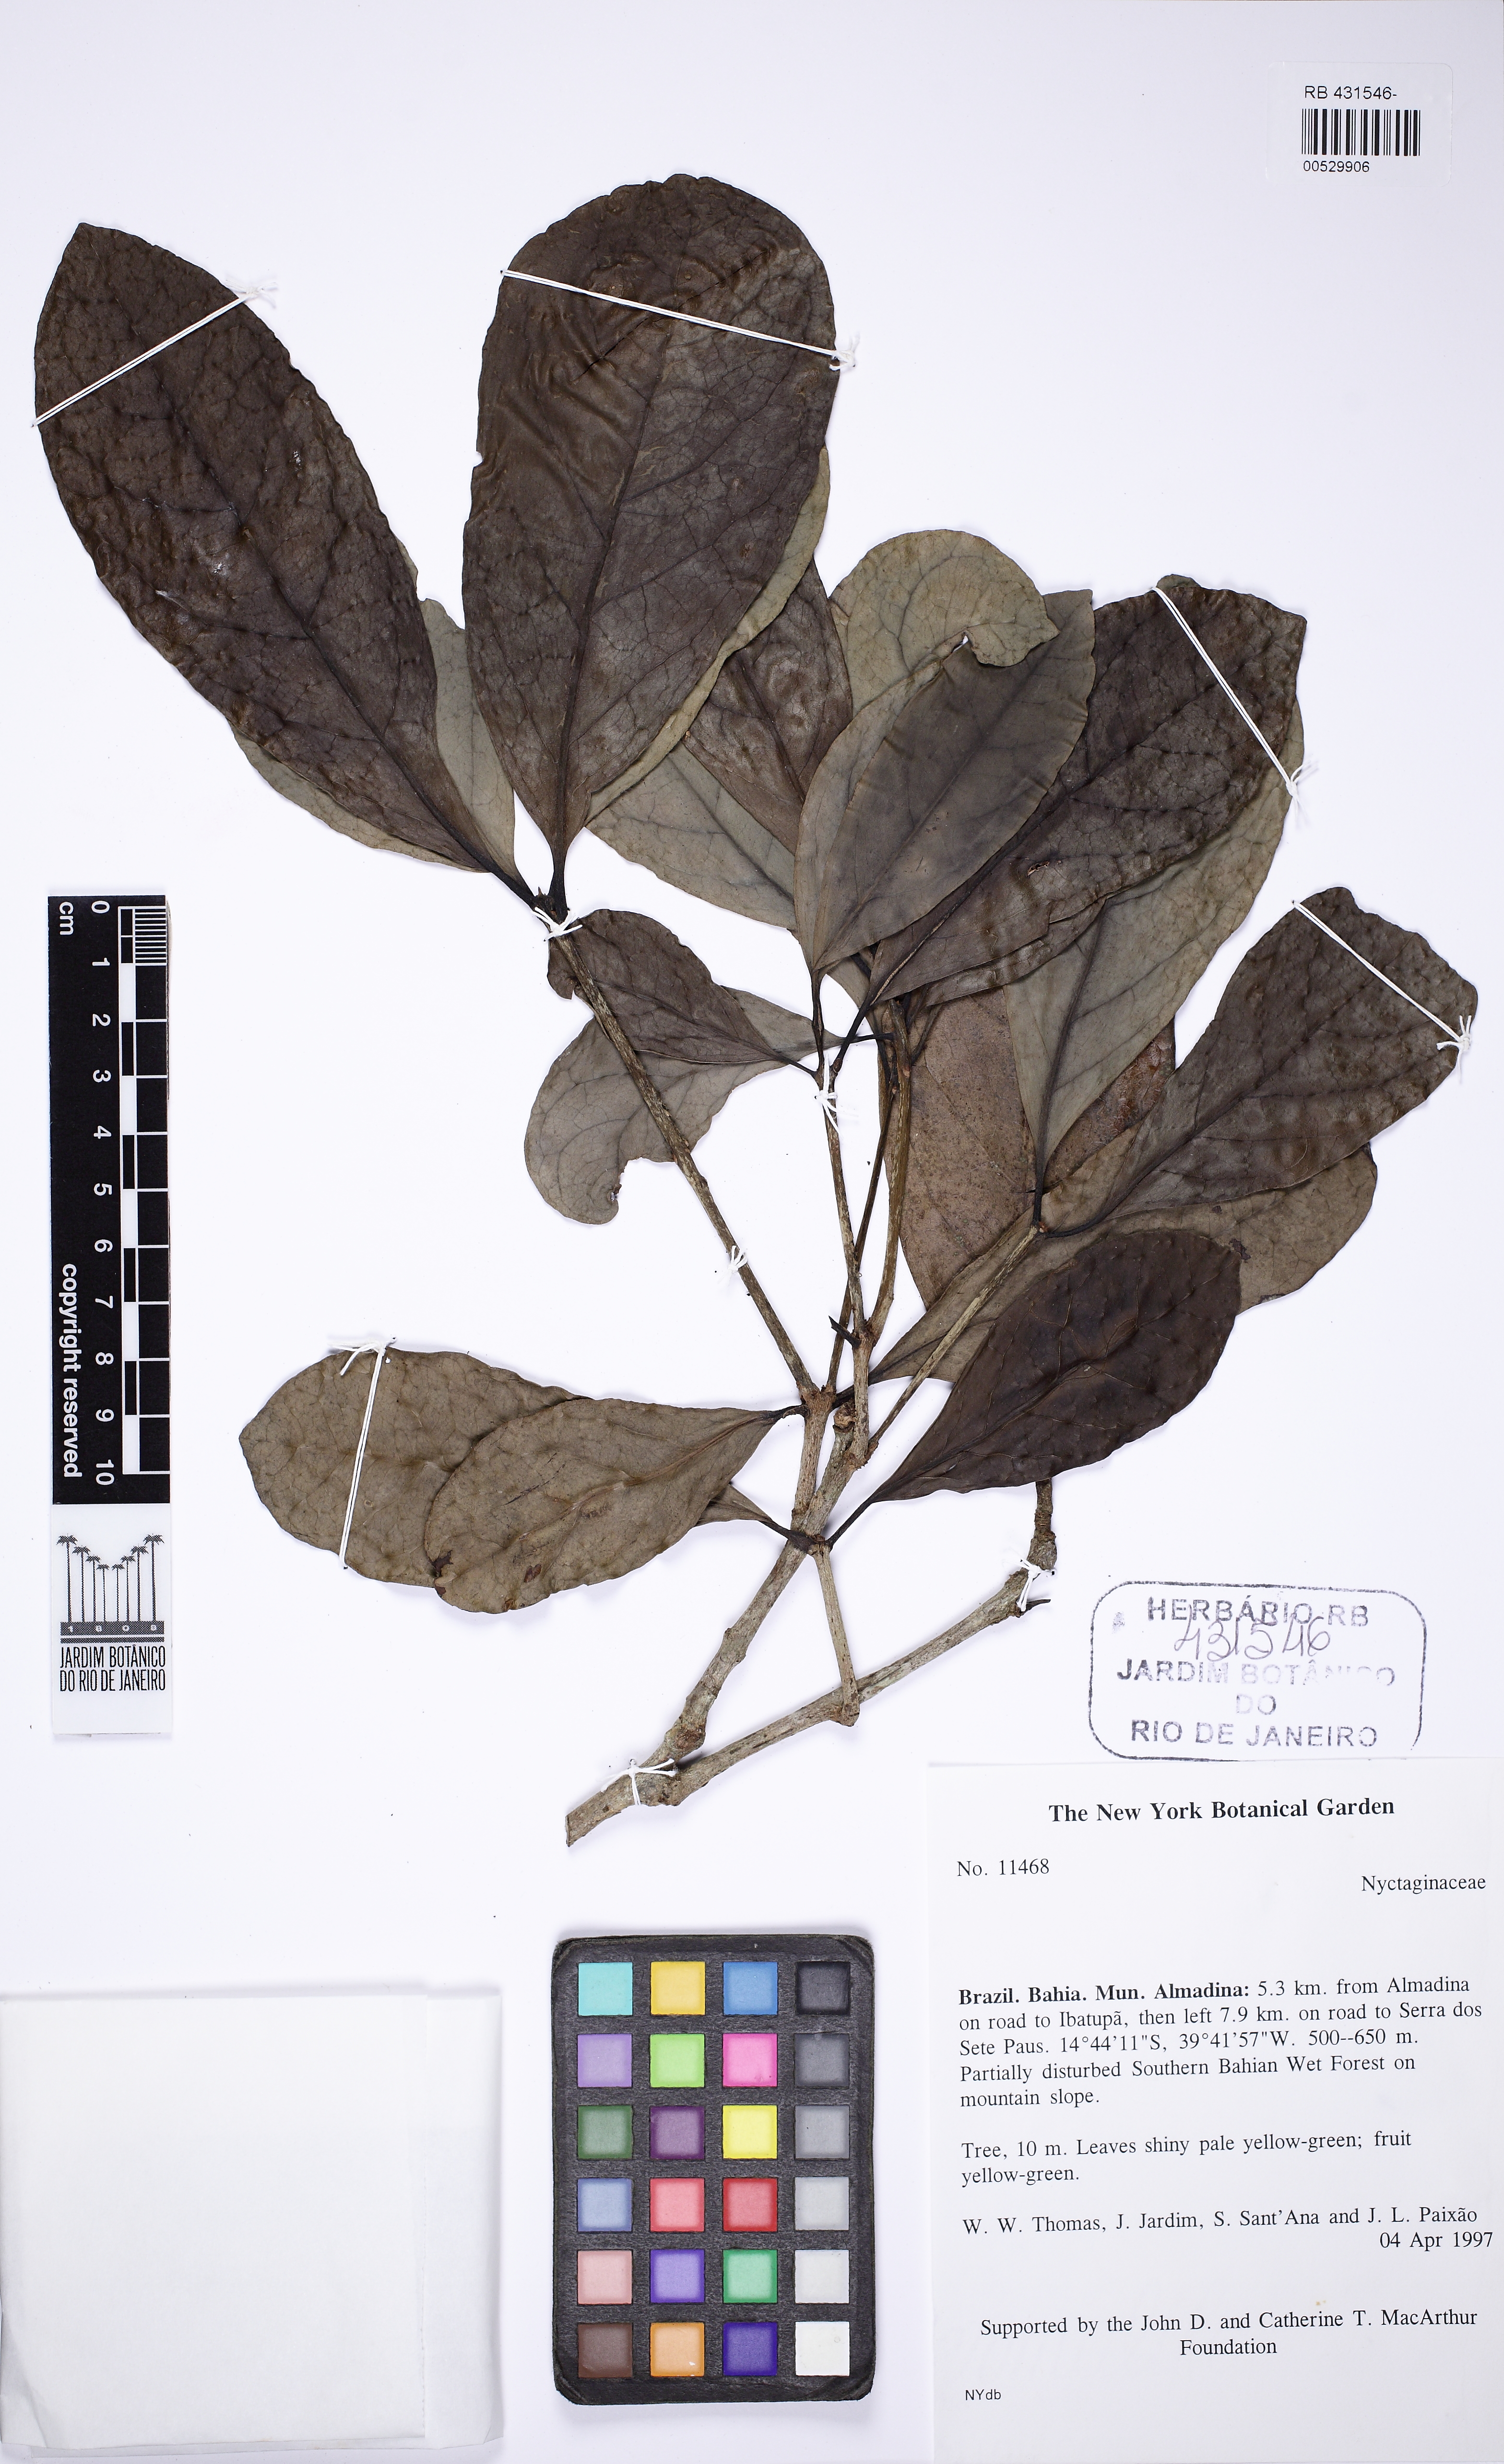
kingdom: Plantae
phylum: Tracheophyta
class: Magnoliopsida
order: Caryophyllales
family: Nyctaginaceae
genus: Guapira
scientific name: Guapira venosa
